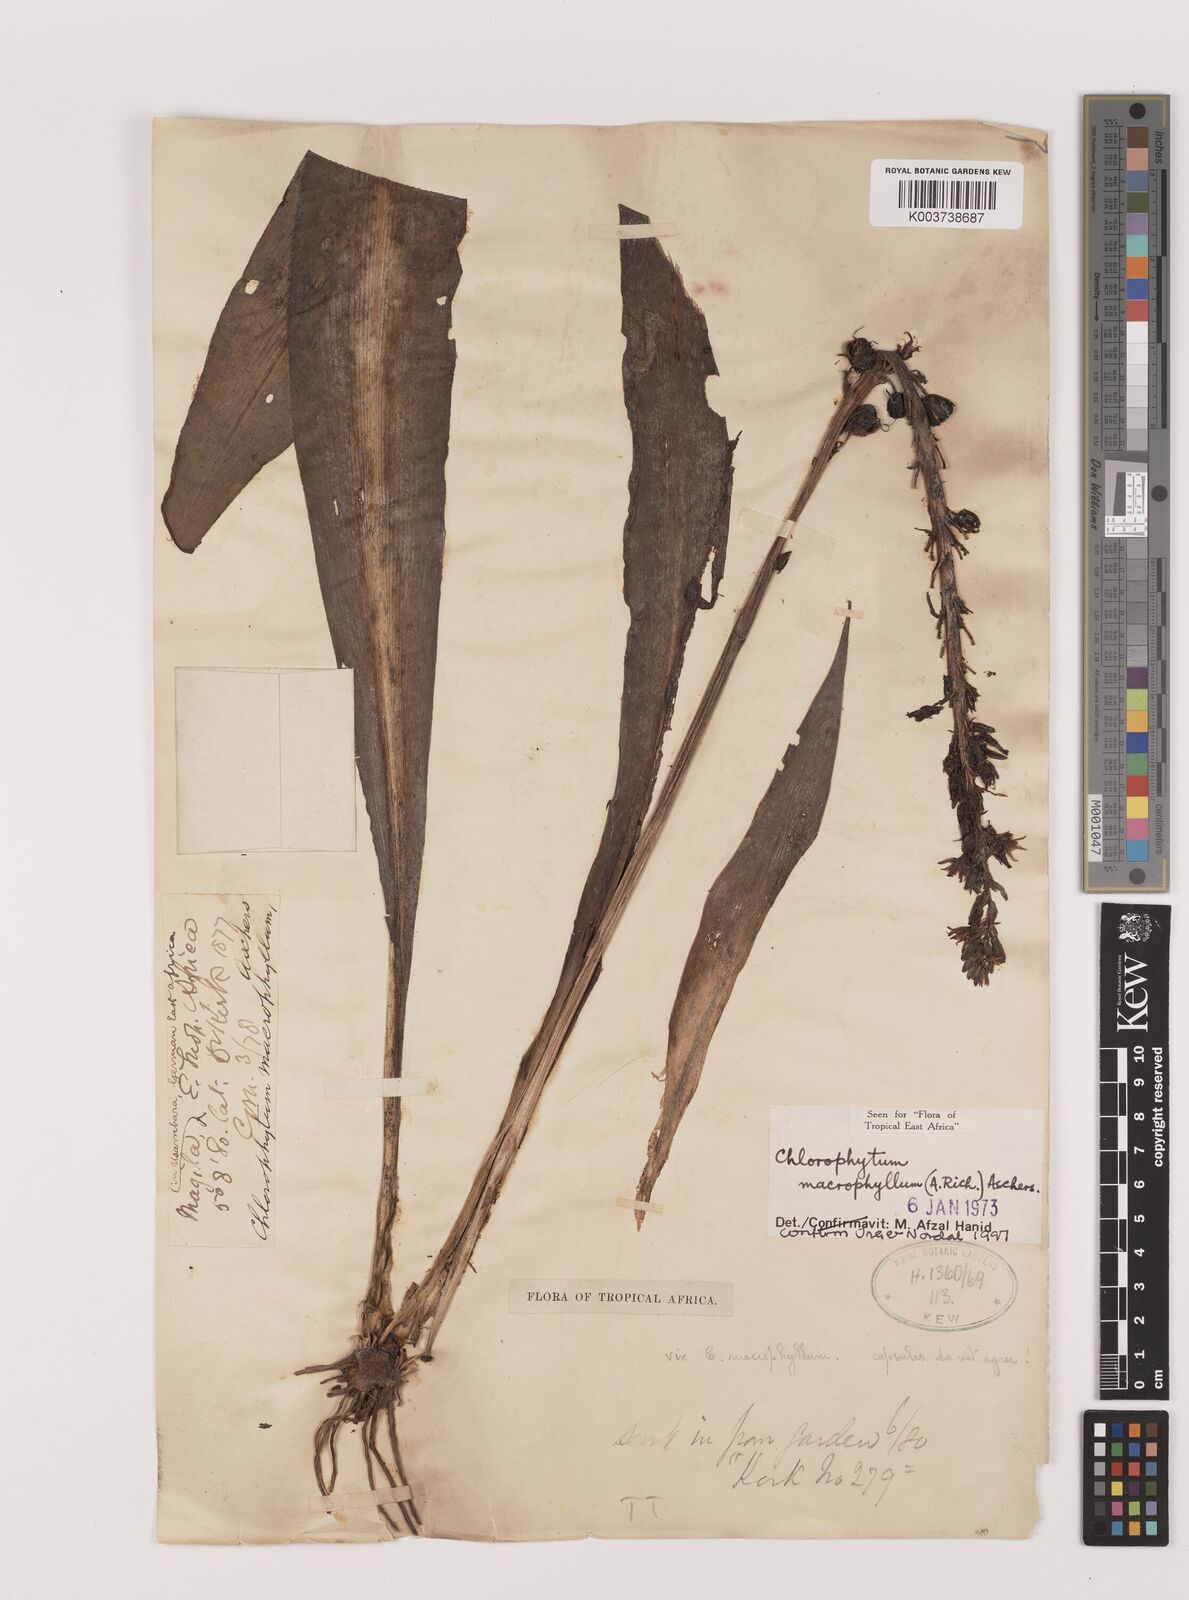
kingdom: Plantae
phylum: Tracheophyta
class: Liliopsida
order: Asparagales
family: Asparagaceae
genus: Chlorophytum
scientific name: Chlorophytum macrophyllum
